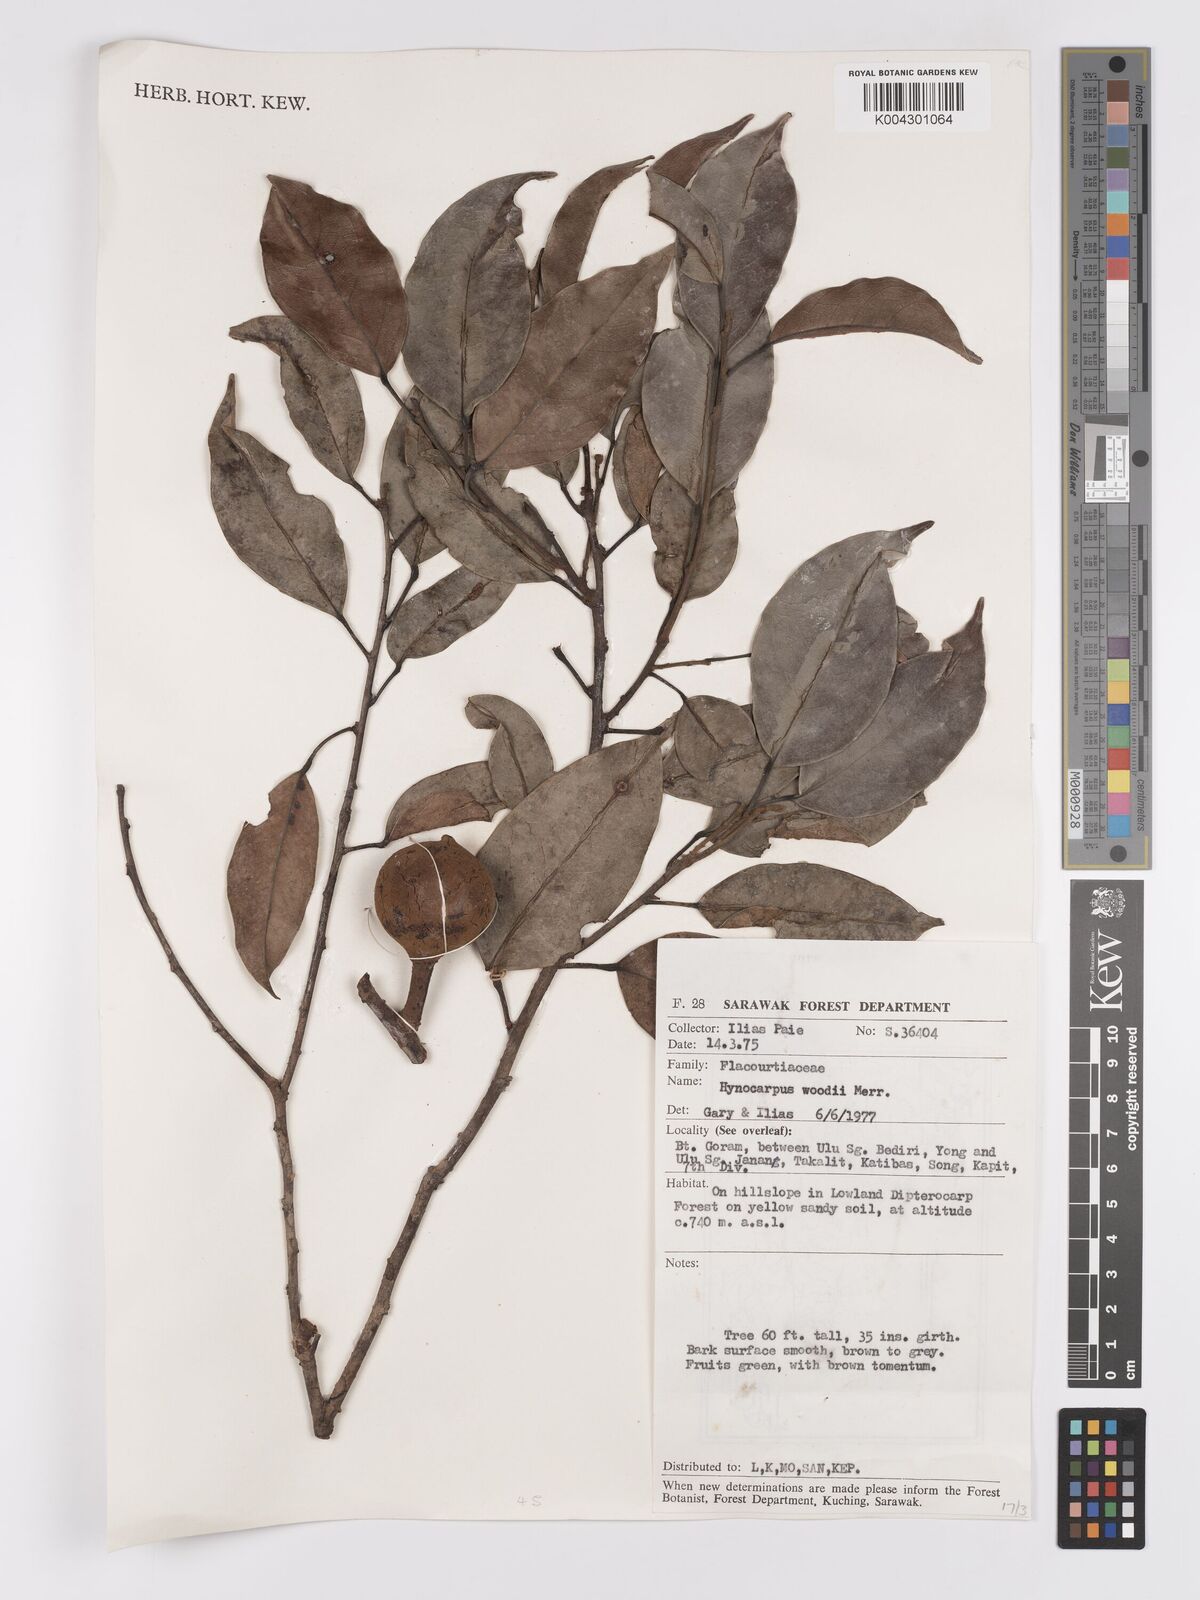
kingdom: Plantae
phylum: Tracheophyta
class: Magnoliopsida
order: Malpighiales
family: Achariaceae
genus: Hydnocarpus
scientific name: Hydnocarpus woodii
